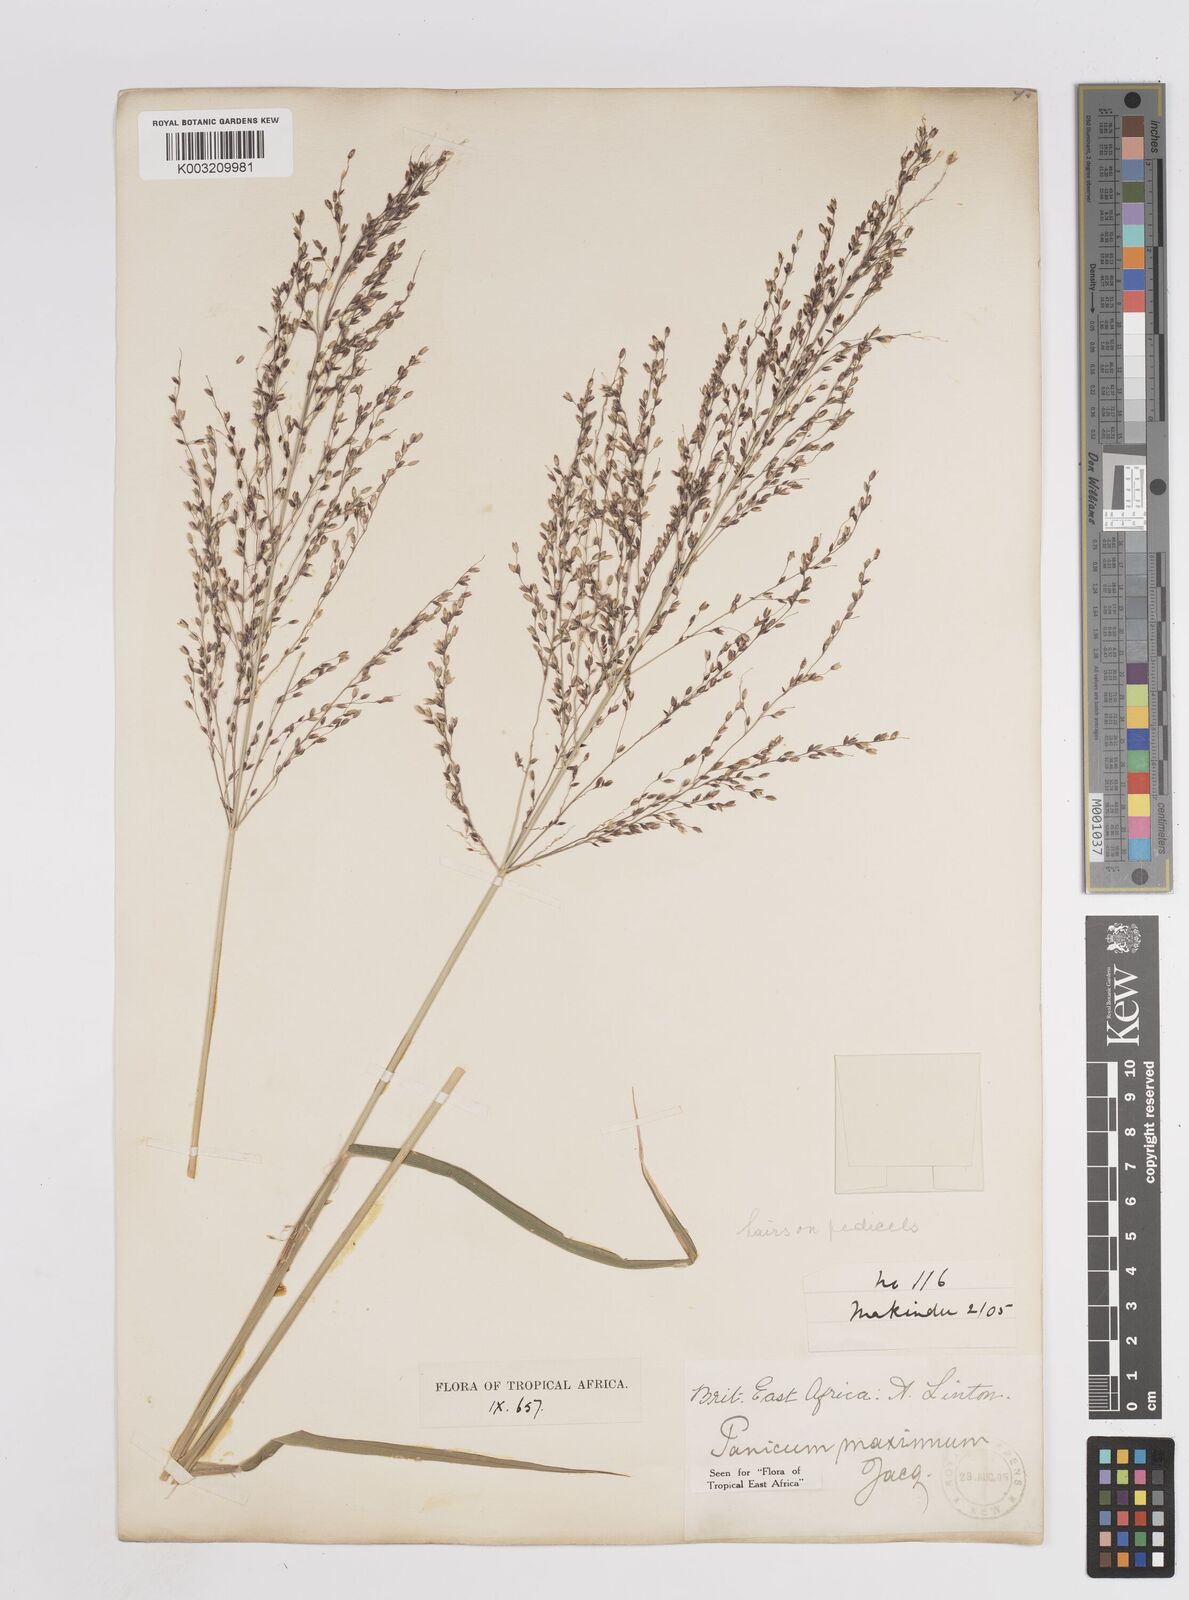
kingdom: Plantae
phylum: Tracheophyta
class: Liliopsida
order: Poales
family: Poaceae
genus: Megathyrsus
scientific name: Megathyrsus maximus
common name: Guineagrass
